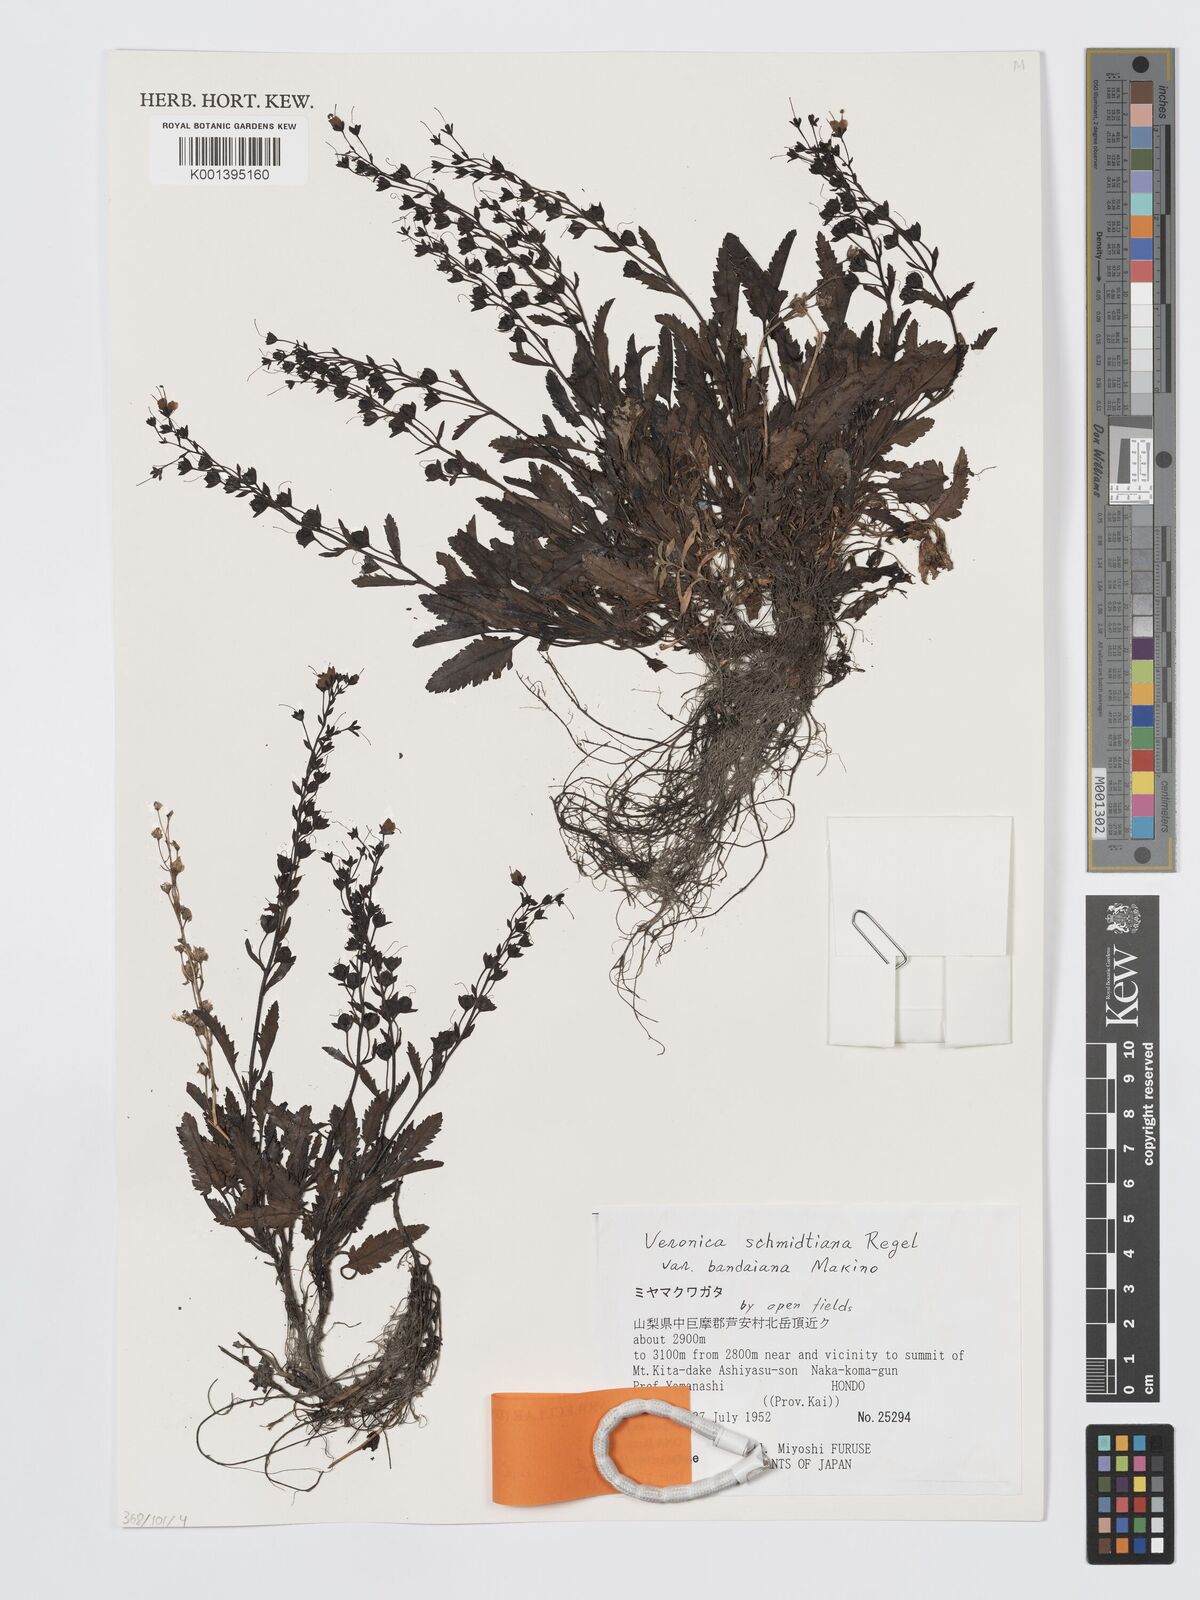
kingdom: Plantae
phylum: Tracheophyta
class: Magnoliopsida
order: Lamiales
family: Plantaginaceae
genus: Veronica
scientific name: Veronica schmidtiana
